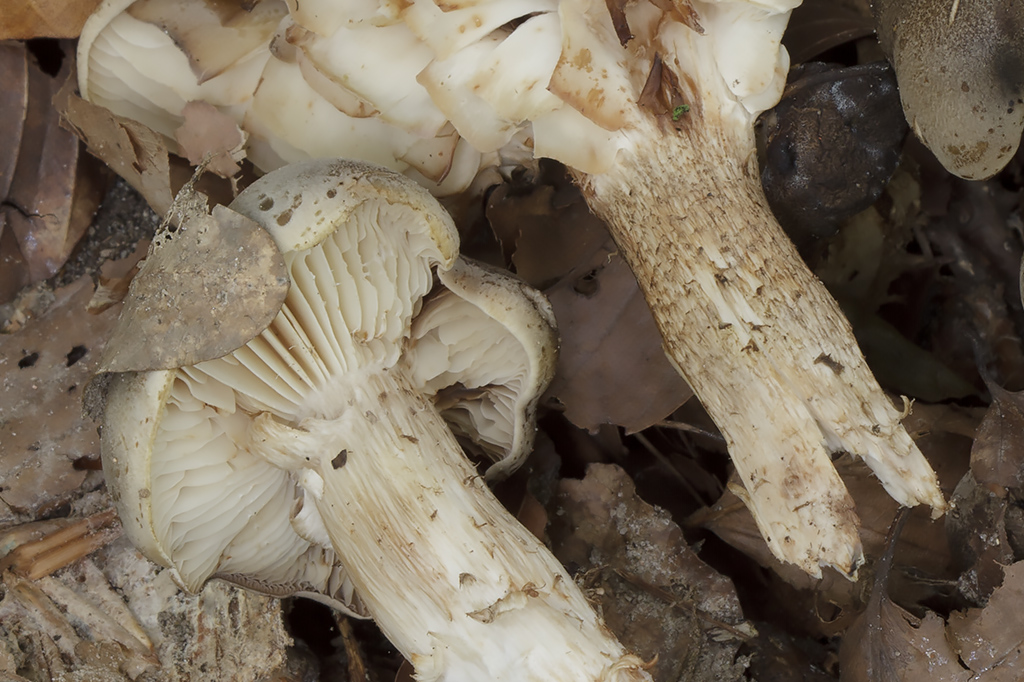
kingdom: Fungi
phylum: Basidiomycota
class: Agaricomycetes
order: Agaricales
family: Tricholomataceae
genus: Tricholoma
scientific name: Tricholoma saponaceum
